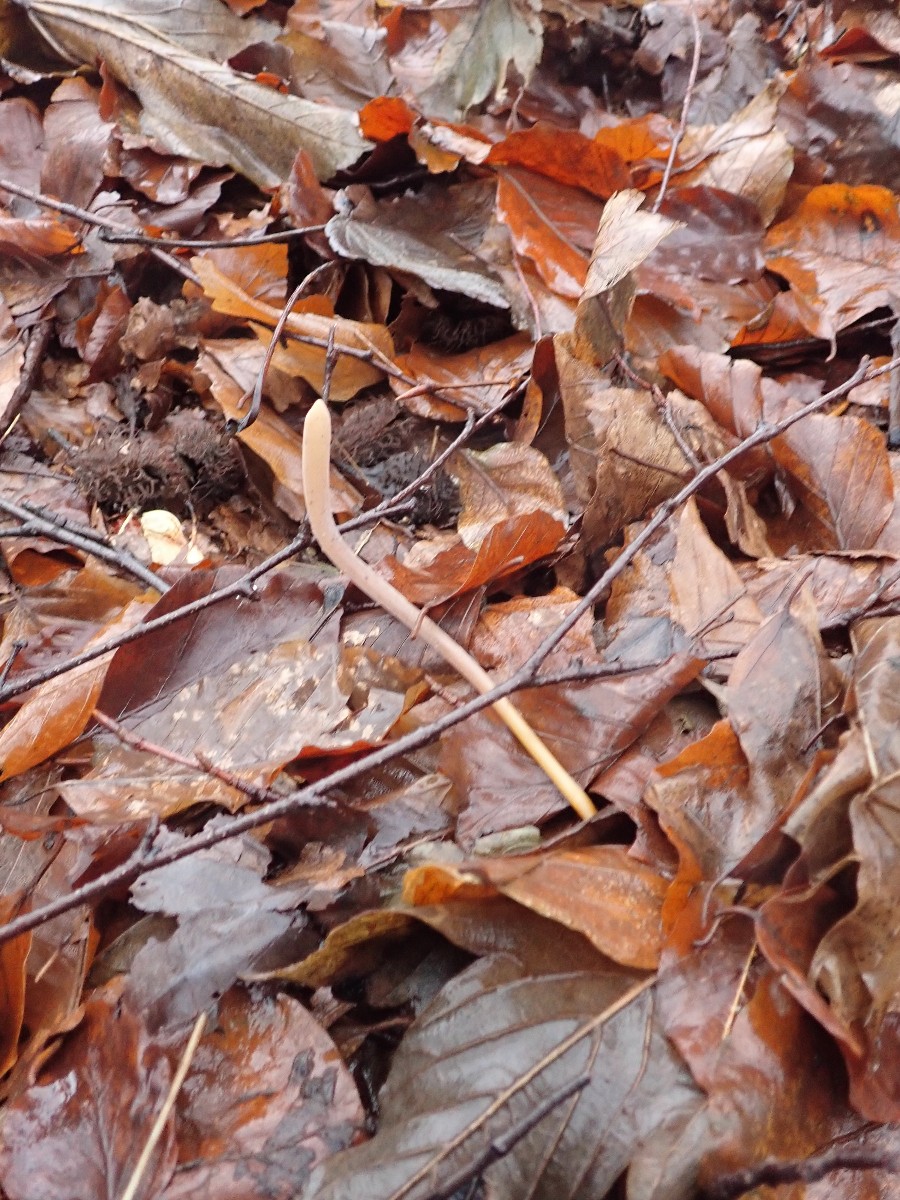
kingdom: Fungi
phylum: Basidiomycota
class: Agaricomycetes
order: Agaricales
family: Typhulaceae
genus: Typhula
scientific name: Typhula fistulosa
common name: pibet rørkølle
